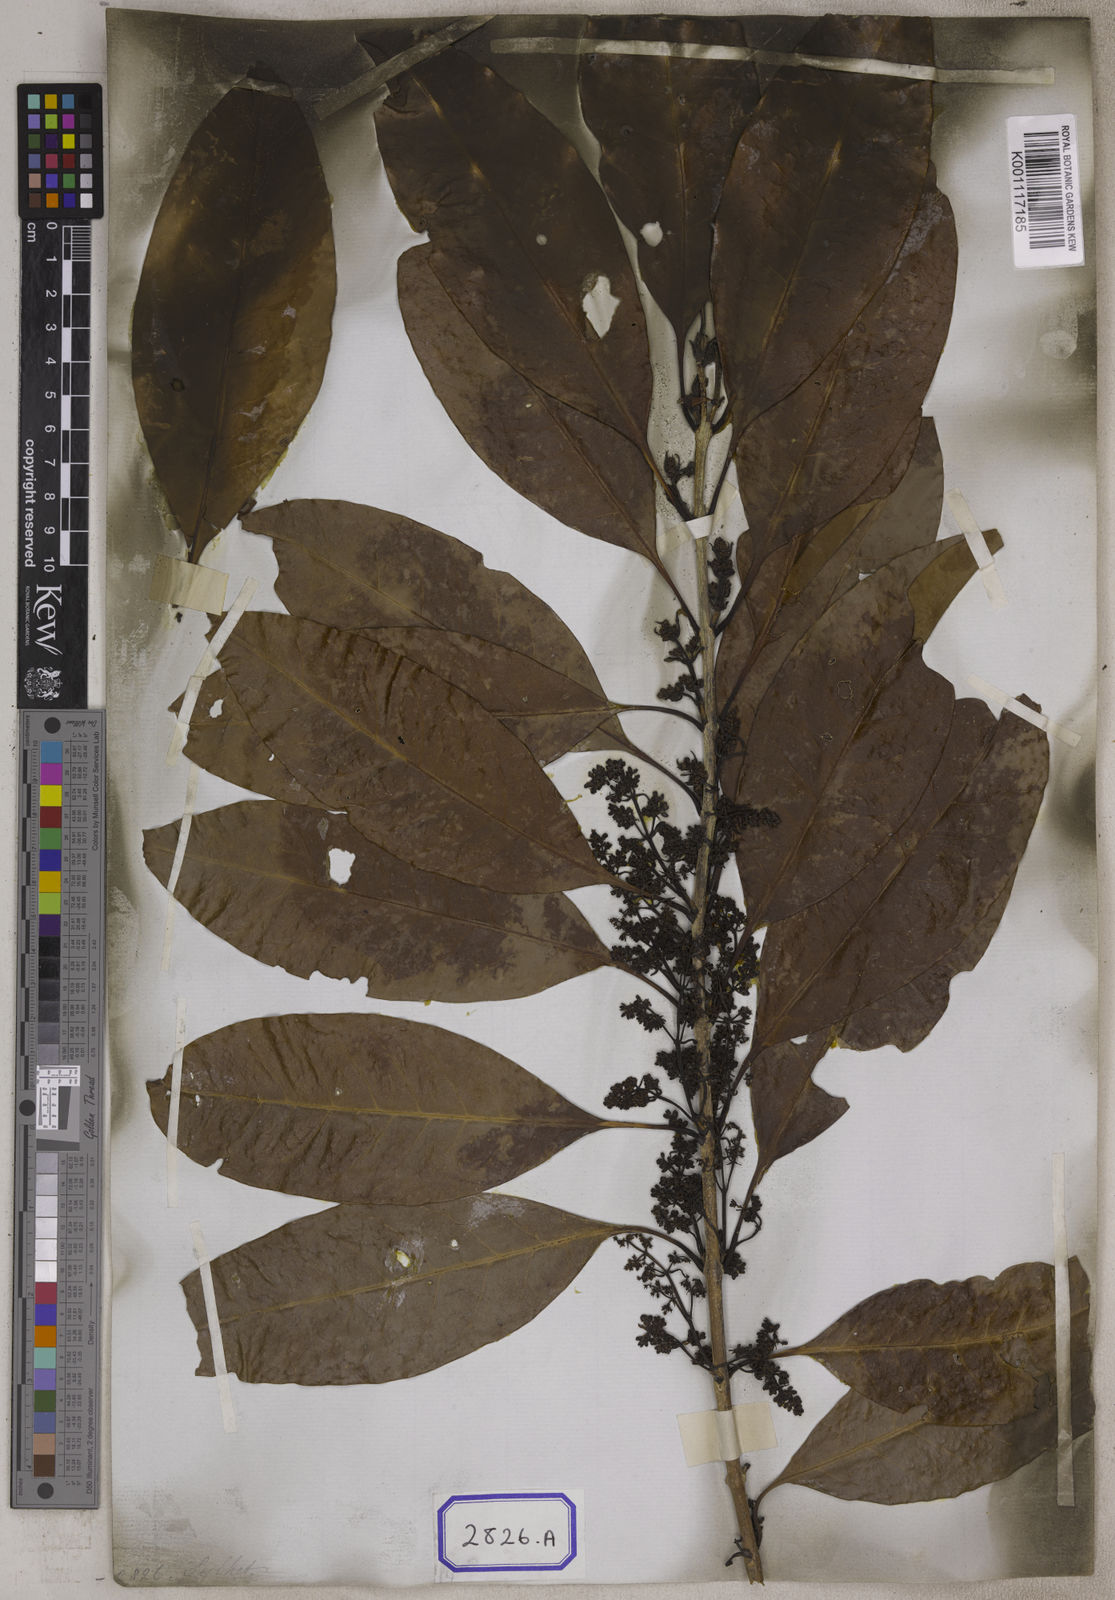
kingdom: Plantae
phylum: Tracheophyta
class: Magnoliopsida
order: Lamiales
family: Oleaceae
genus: Chionanthus
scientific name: Chionanthus
